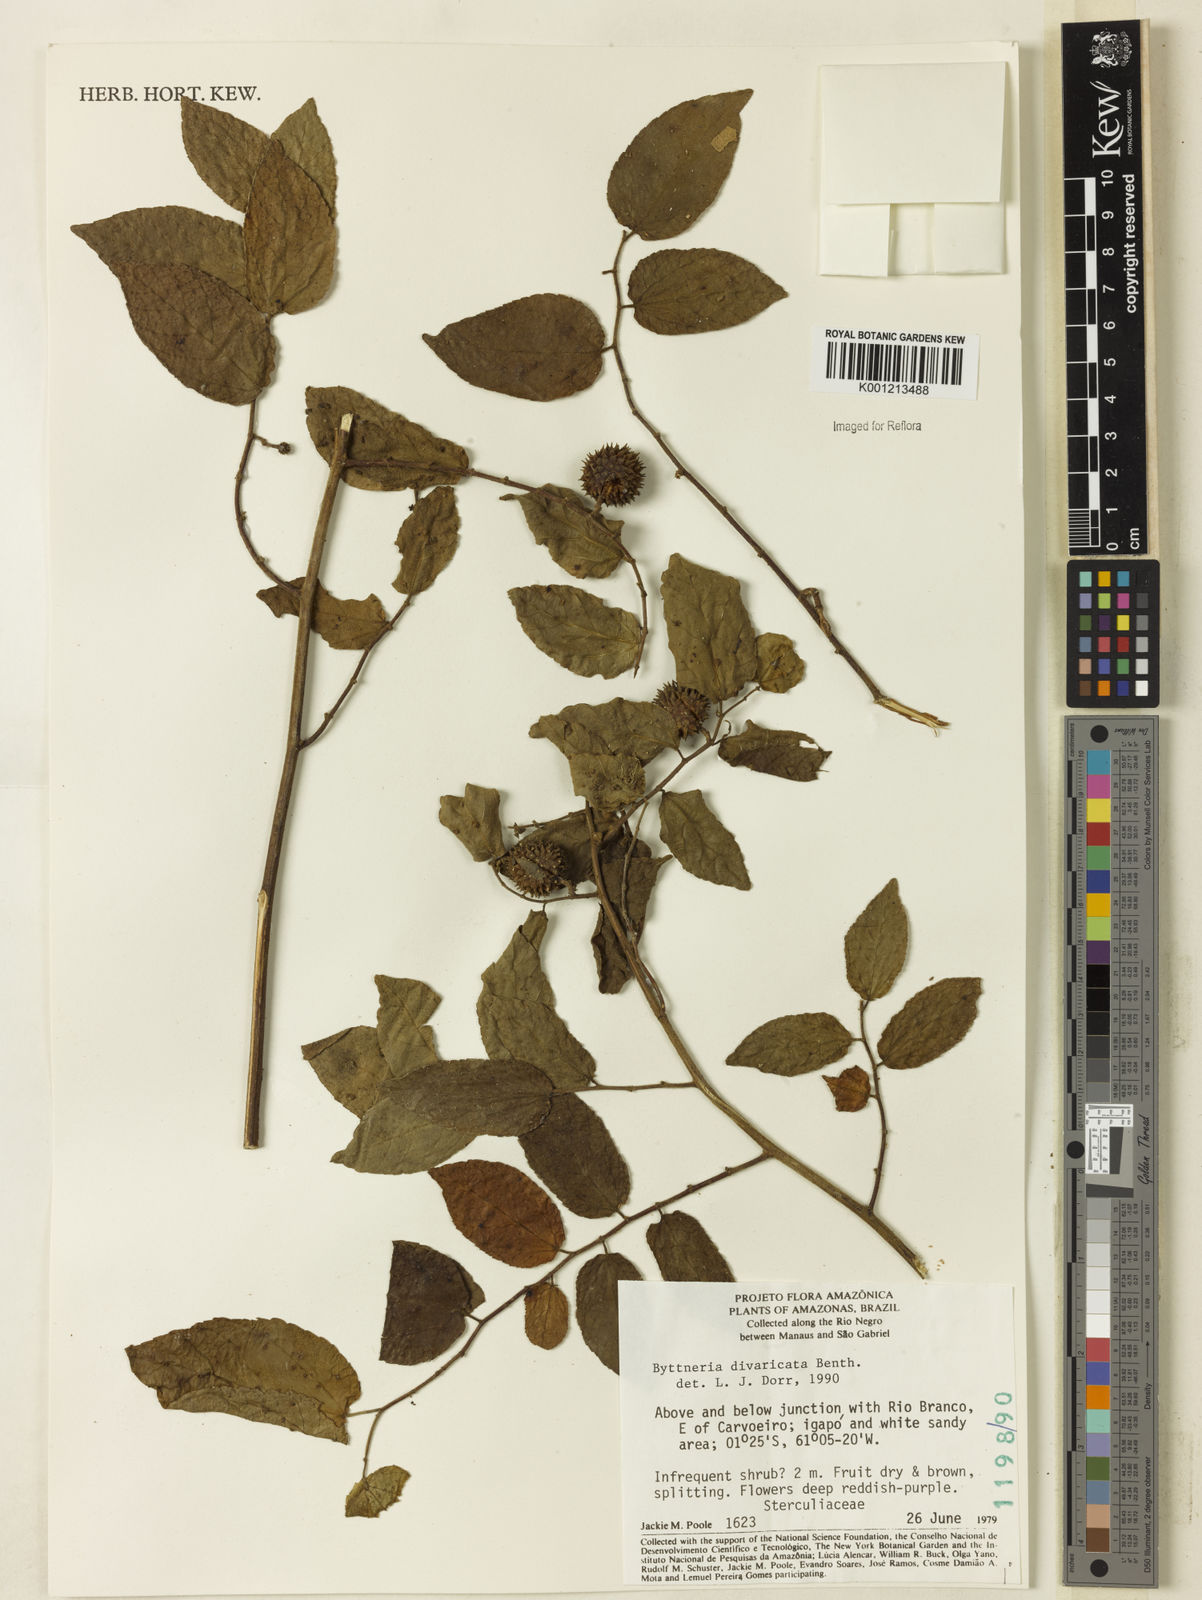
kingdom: Plantae
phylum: Tracheophyta
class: Magnoliopsida
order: Malvales
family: Malvaceae
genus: Byttneria
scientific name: Byttneria divaricata
